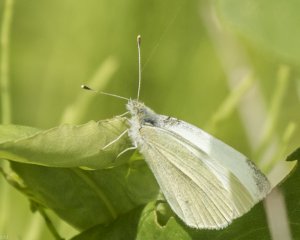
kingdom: Animalia
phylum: Arthropoda
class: Insecta
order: Lepidoptera
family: Pieridae
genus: Pieris
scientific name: Pieris rapae
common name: Cabbage White
